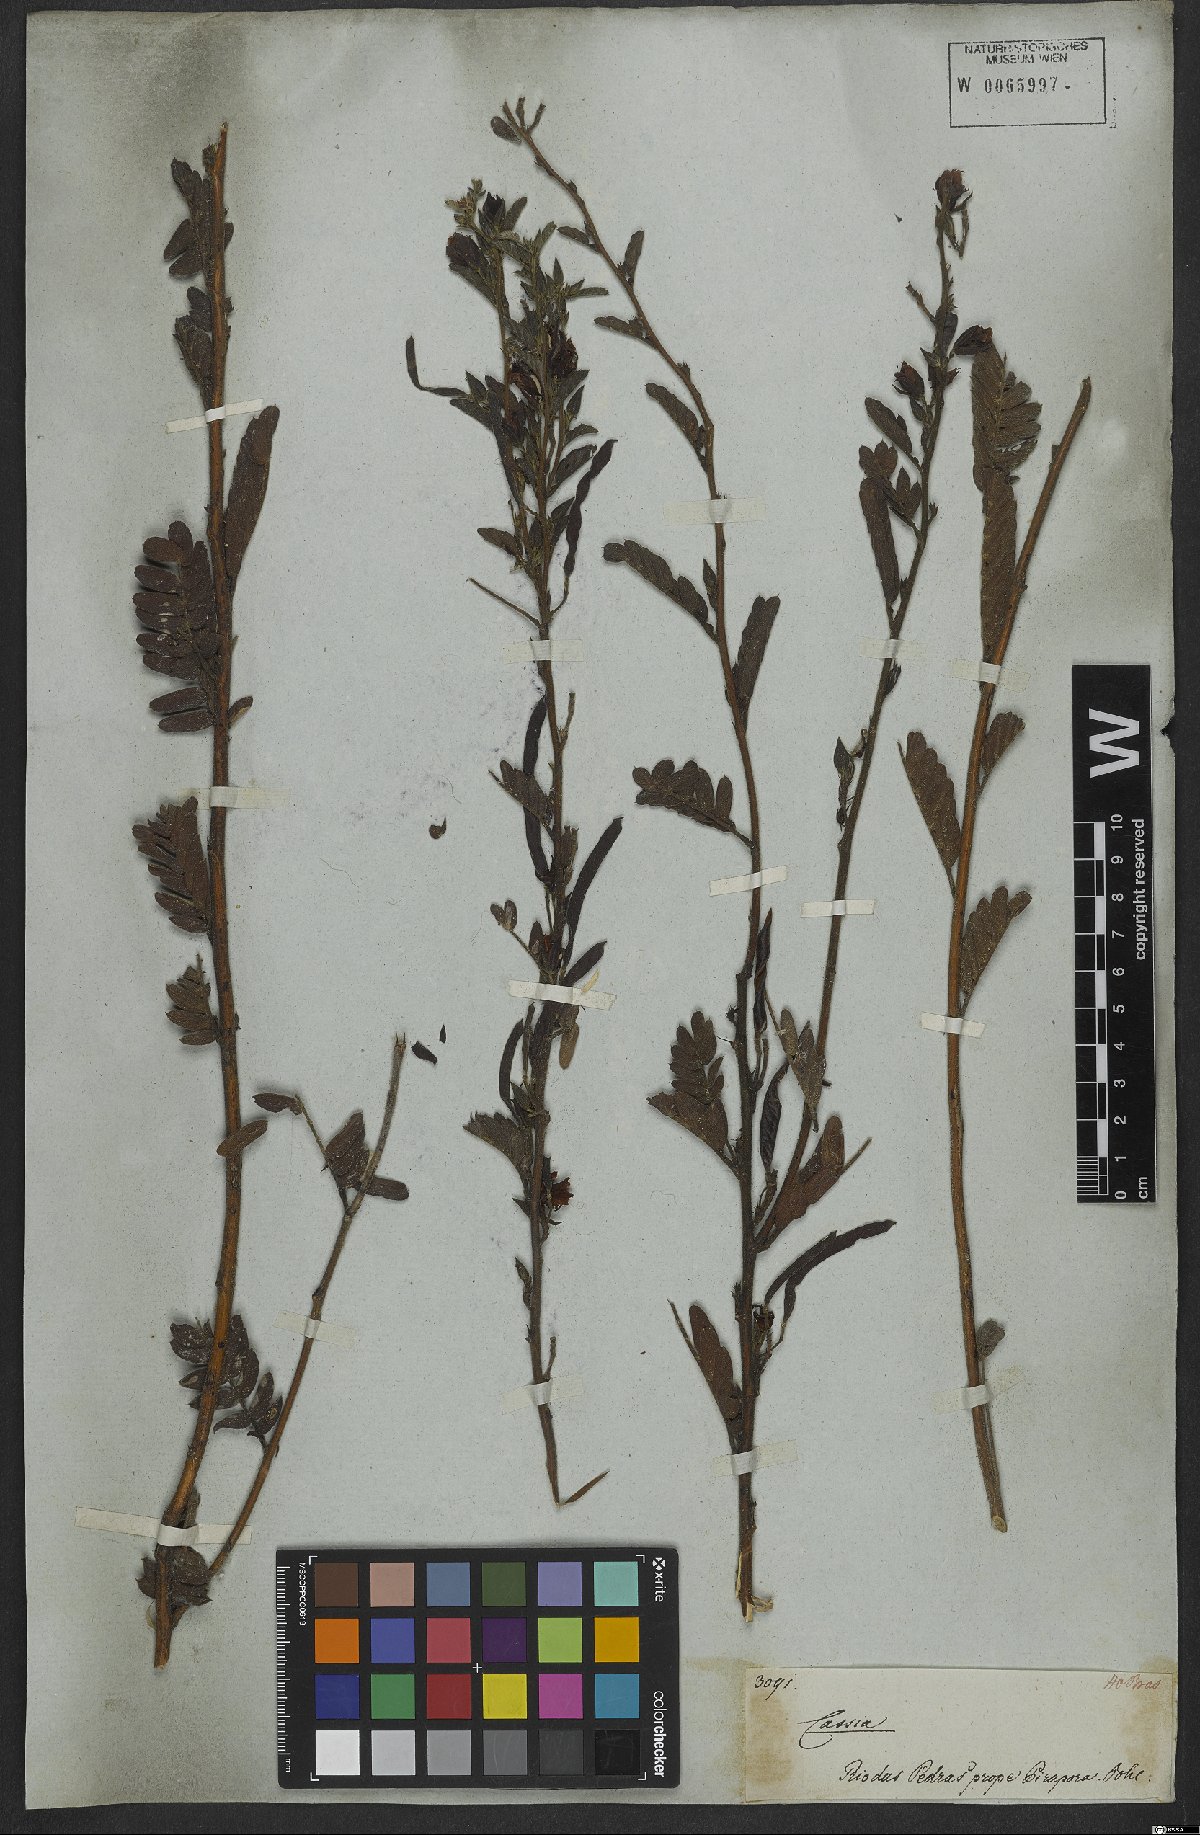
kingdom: Plantae
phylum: Tracheophyta
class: Magnoliopsida
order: Fabales
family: Fabaceae
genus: Chamaecrista
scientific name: Chamaecrista repens
